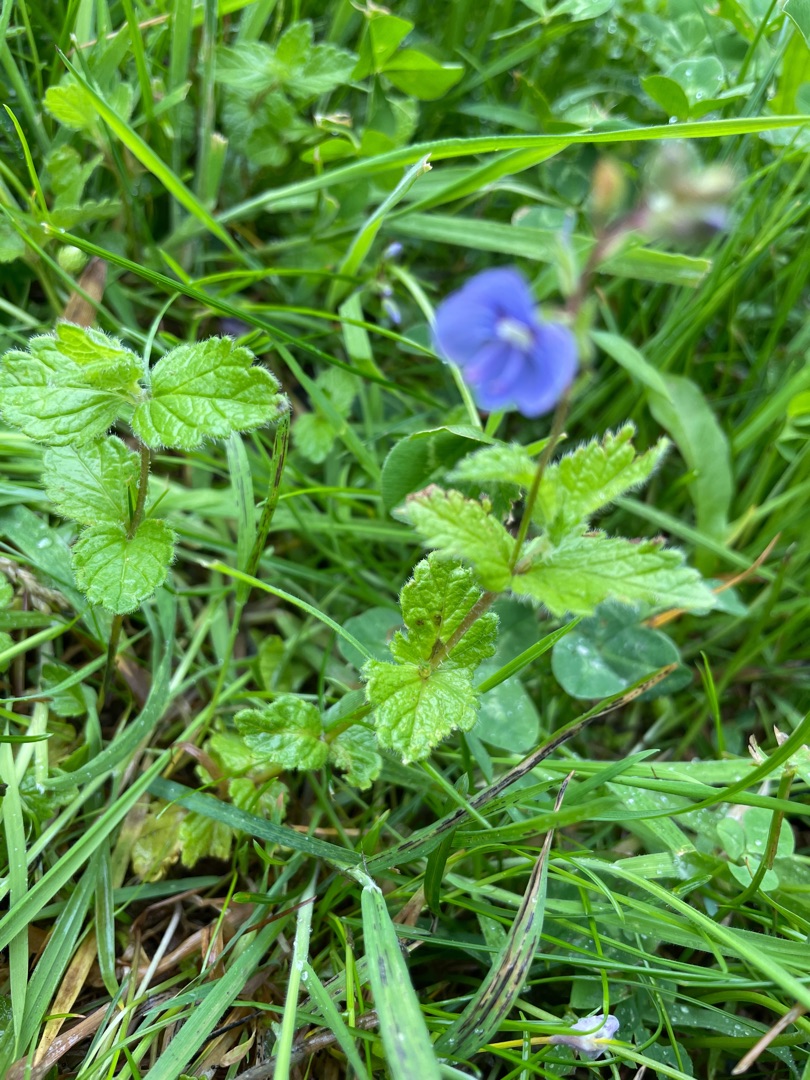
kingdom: Plantae
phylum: Tracheophyta
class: Magnoliopsida
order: Lamiales
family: Plantaginaceae
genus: Veronica
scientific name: Veronica chamaedrys
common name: Tveskægget ærenpris
